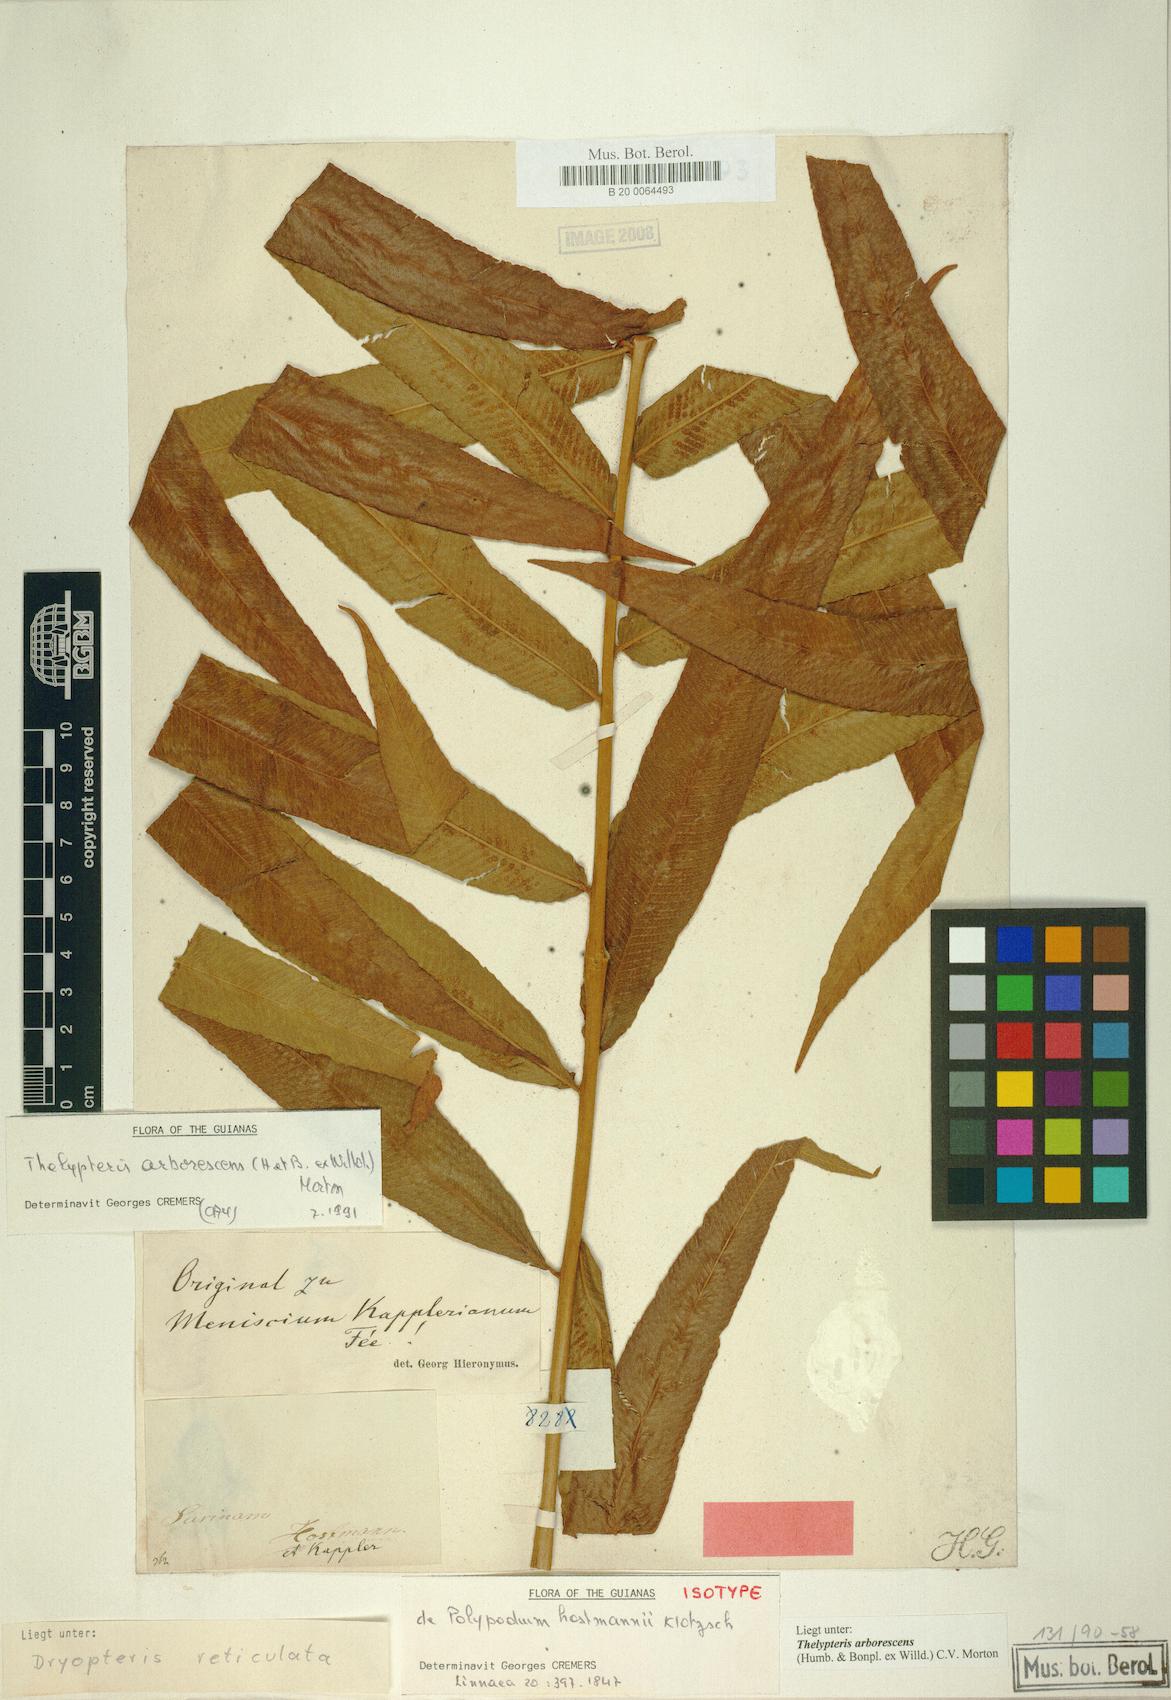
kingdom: Plantae
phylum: Tracheophyta
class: Polypodiopsida
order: Polypodiales
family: Thelypteridaceae
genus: Meniscium
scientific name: Meniscium arborescens
